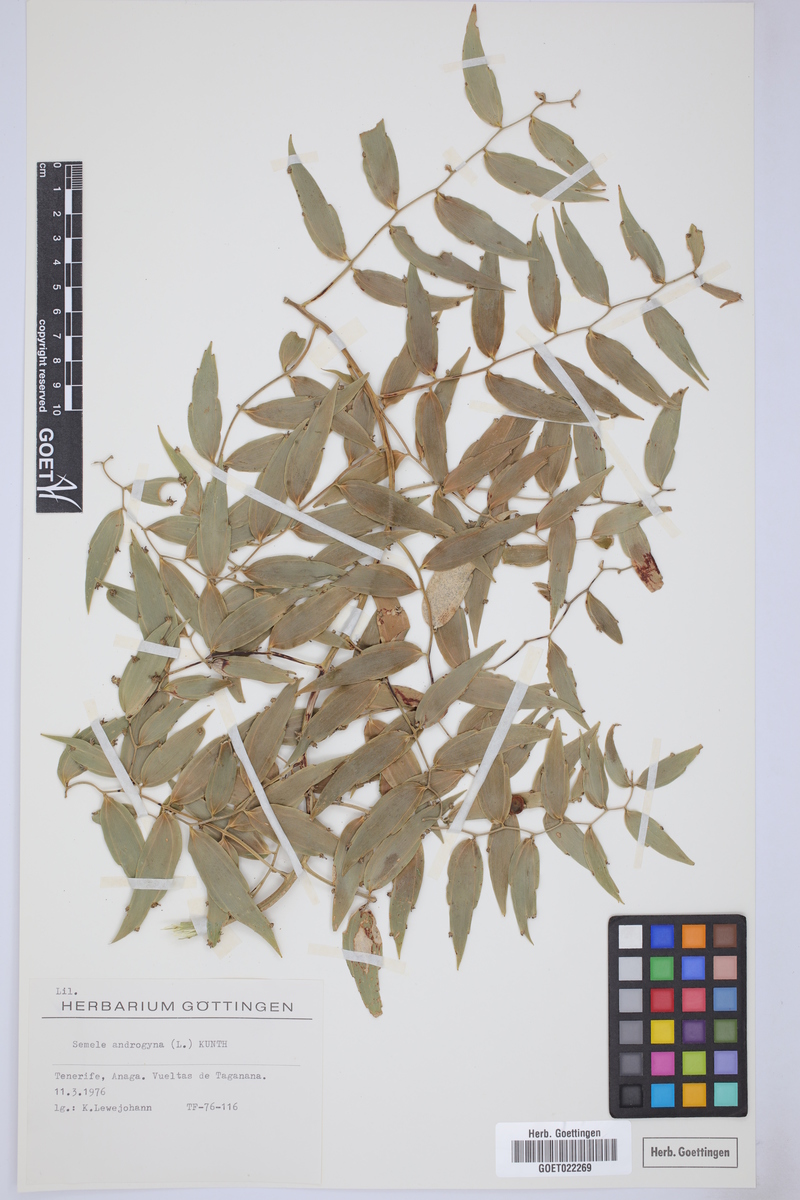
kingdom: Plantae
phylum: Tracheophyta
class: Liliopsida
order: Asparagales
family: Asparagaceae
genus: Semele
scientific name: Semele androgyna
